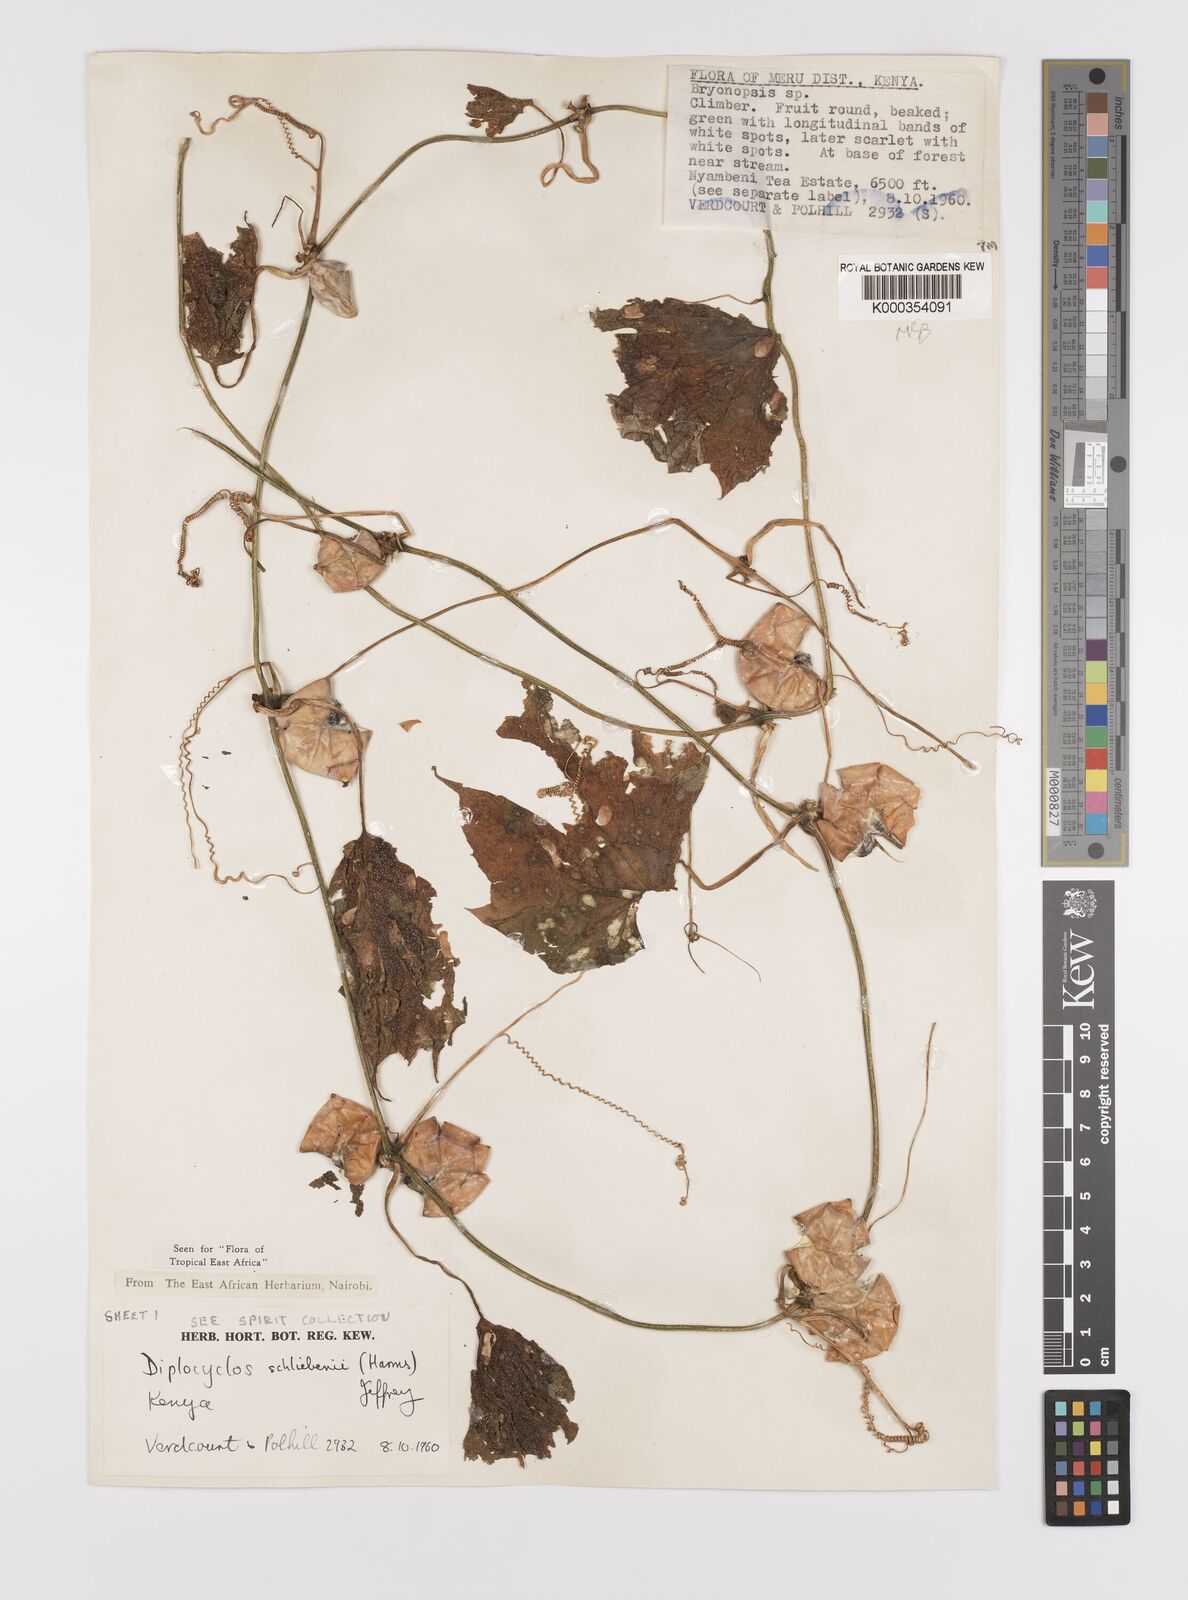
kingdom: Plantae
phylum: Tracheophyta
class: Magnoliopsida
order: Cucurbitales
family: Cucurbitaceae
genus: Diplocyclos
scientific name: Diplocyclos schliebenii
